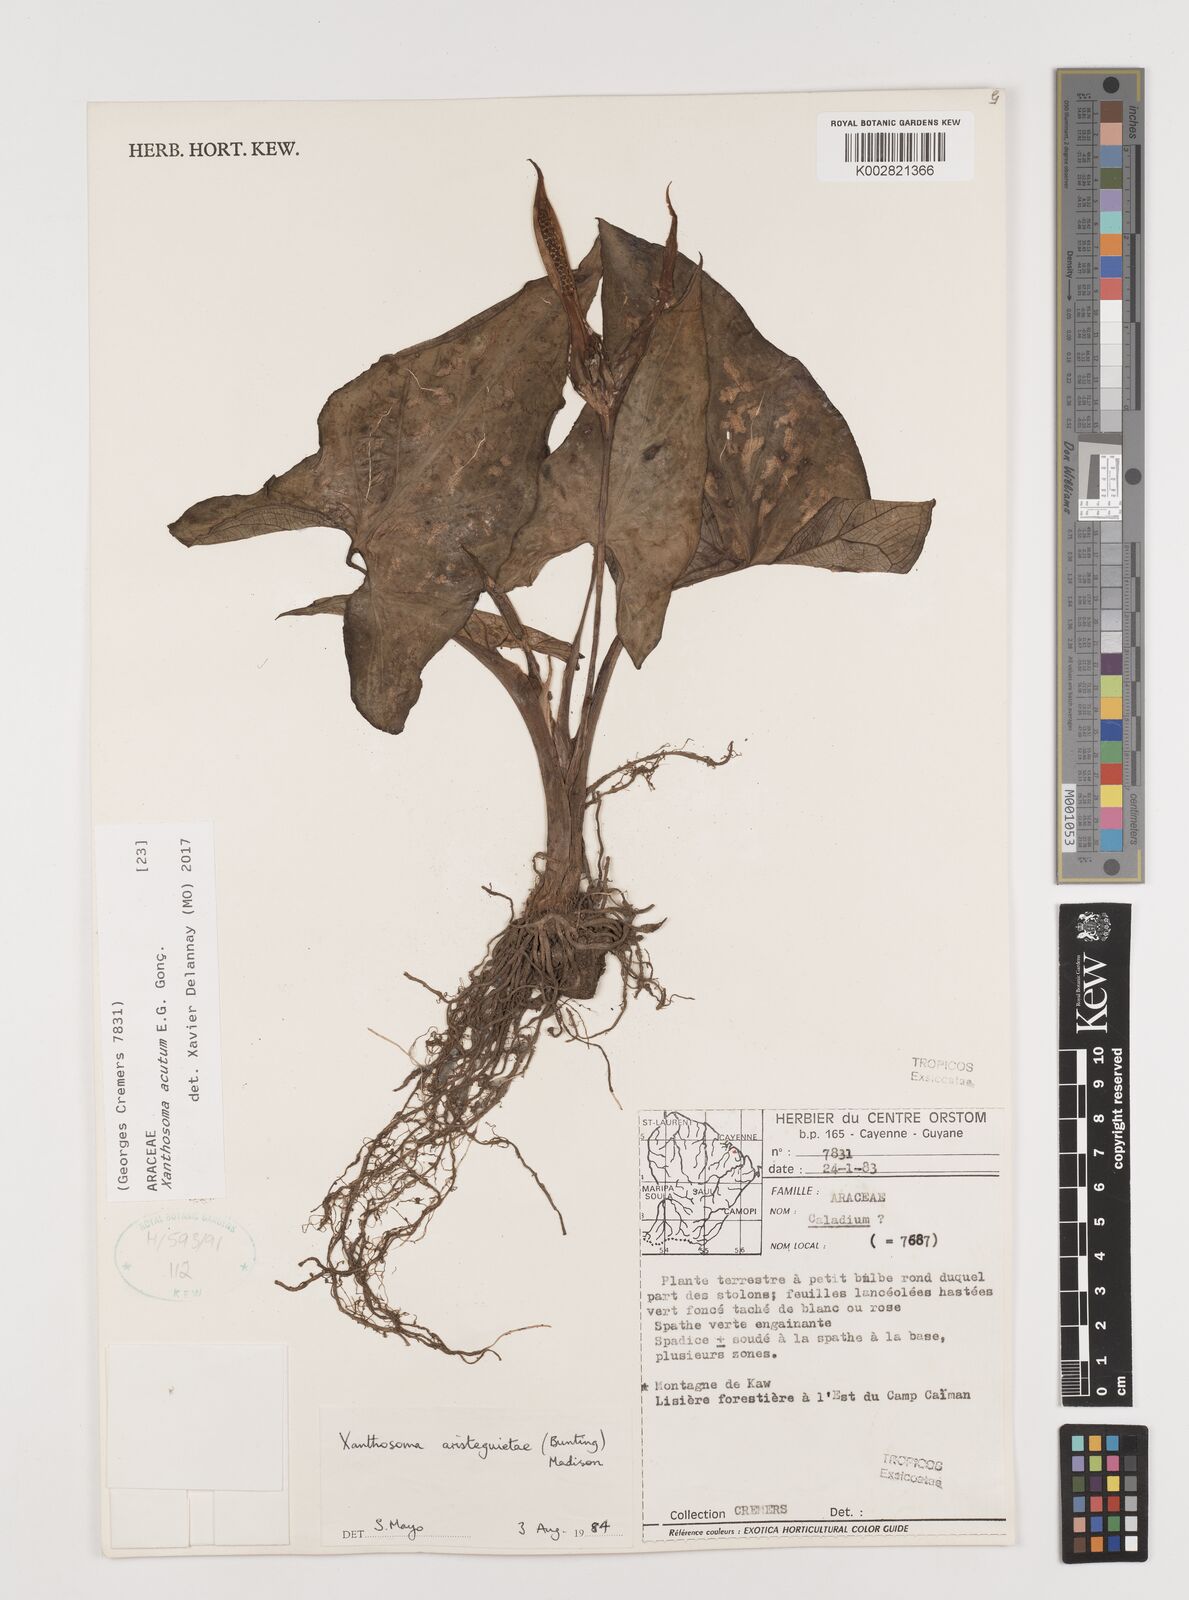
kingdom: Plantae
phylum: Tracheophyta
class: Liliopsida
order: Alismatales
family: Araceae
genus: Xanthosoma
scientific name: Xanthosoma acutum
